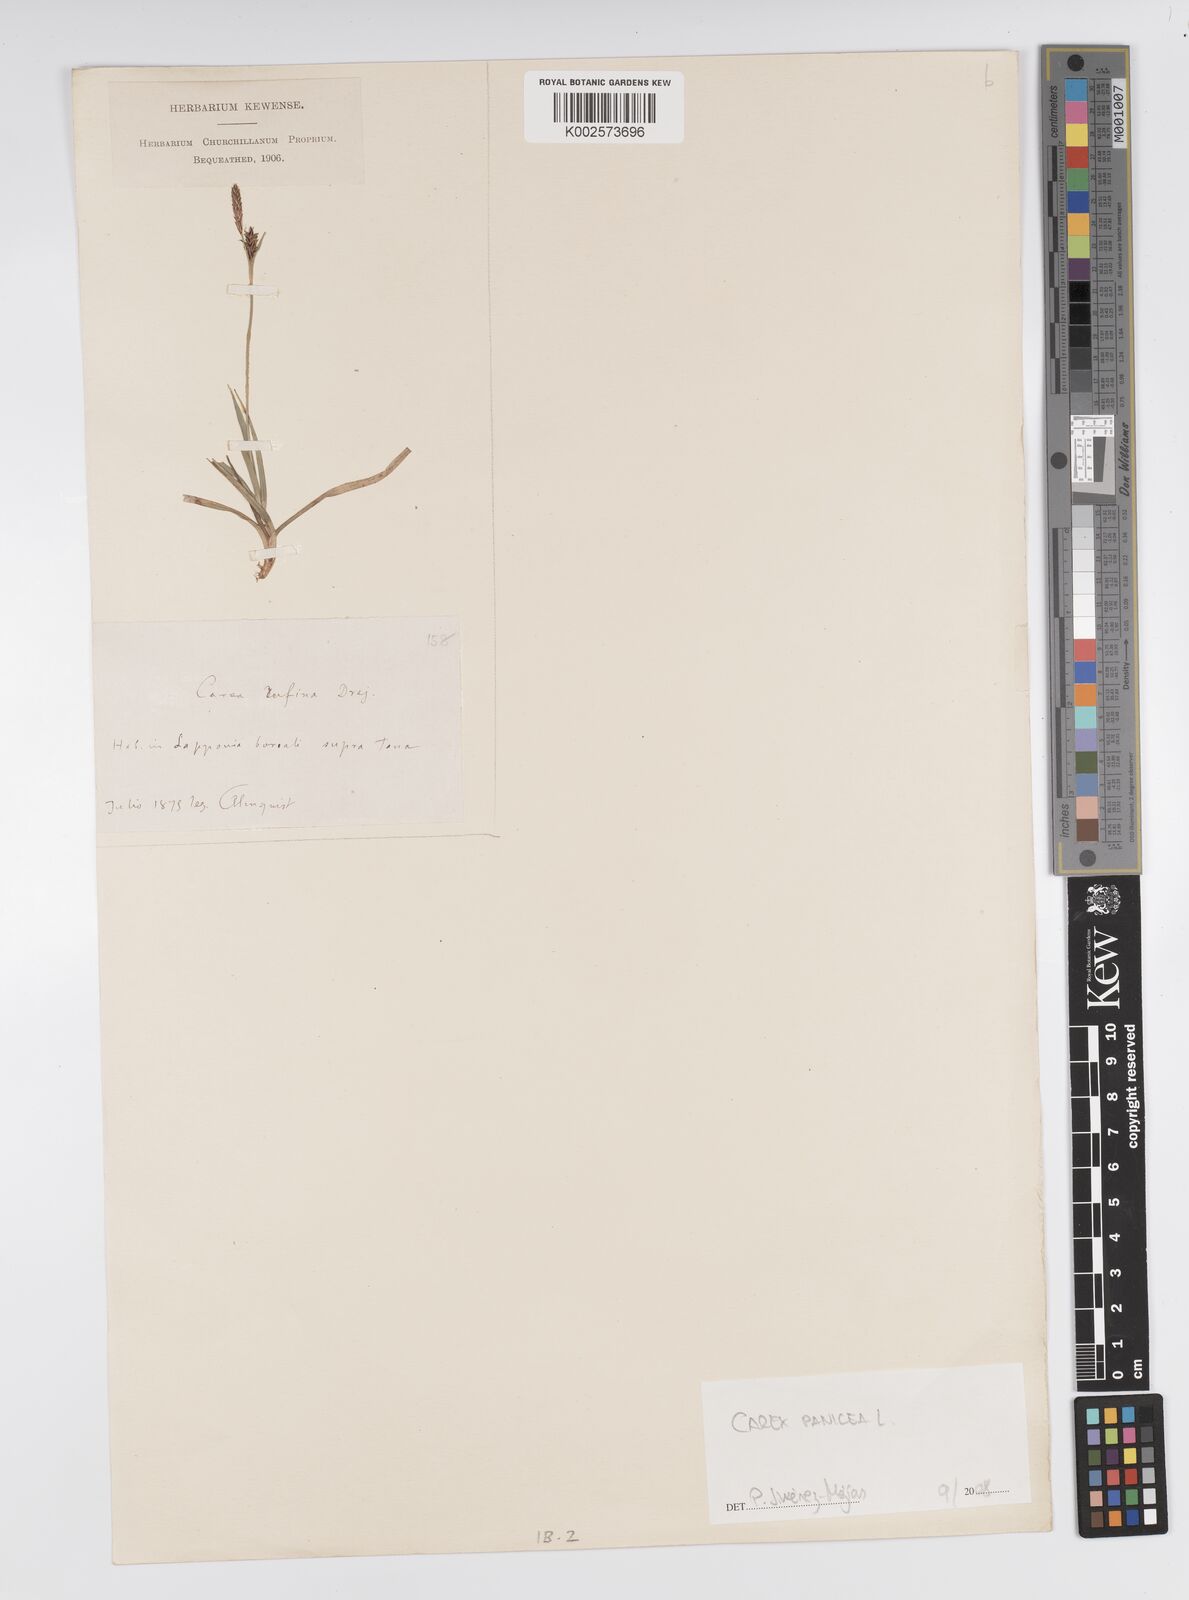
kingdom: Plantae
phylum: Tracheophyta
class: Liliopsida
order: Poales
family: Cyperaceae
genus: Carex
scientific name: Carex panicea
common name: Carnation sedge
